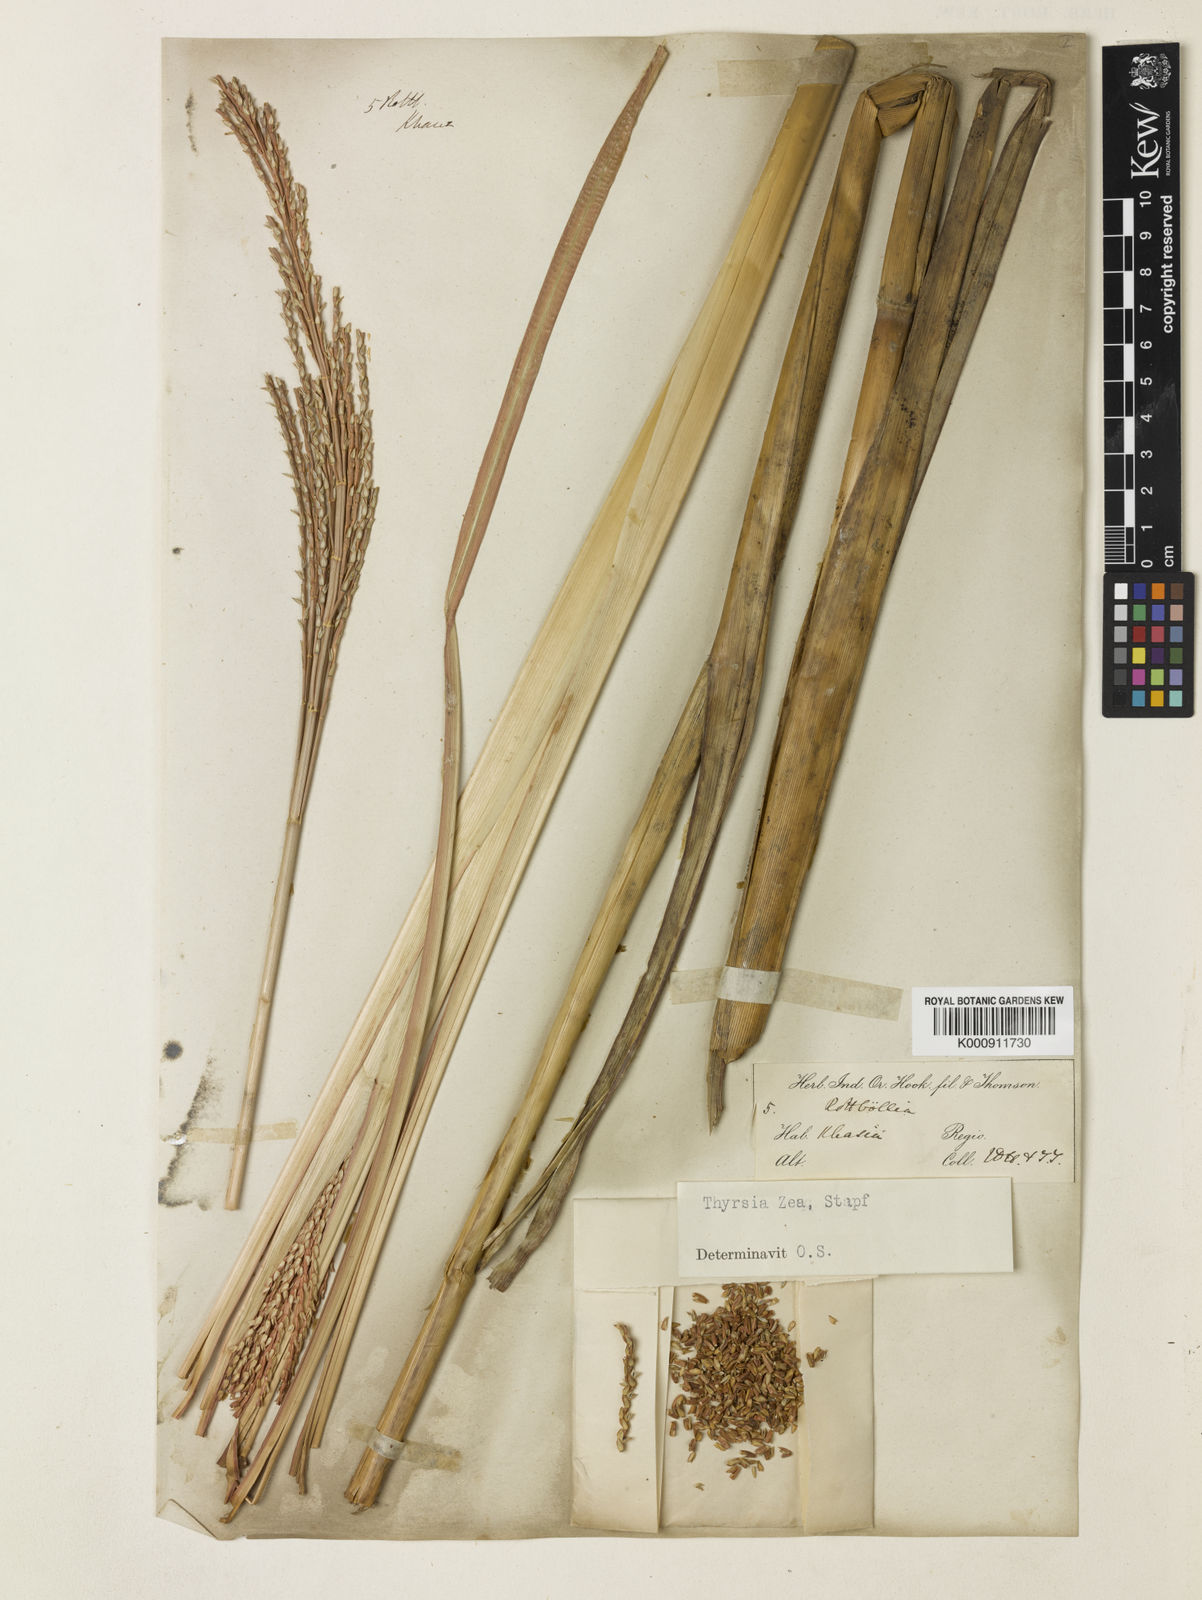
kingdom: Plantae
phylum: Tracheophyta
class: Liliopsida
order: Poales
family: Poaceae
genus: Thyrsia
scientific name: Thyrsia zea
